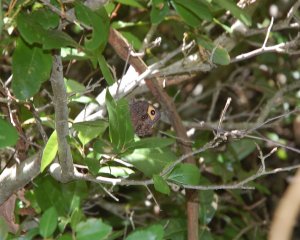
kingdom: Animalia
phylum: Arthropoda
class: Insecta
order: Lepidoptera
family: Nymphalidae
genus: Cercyonis
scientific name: Cercyonis pegala
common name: Common Wood-Nymph
